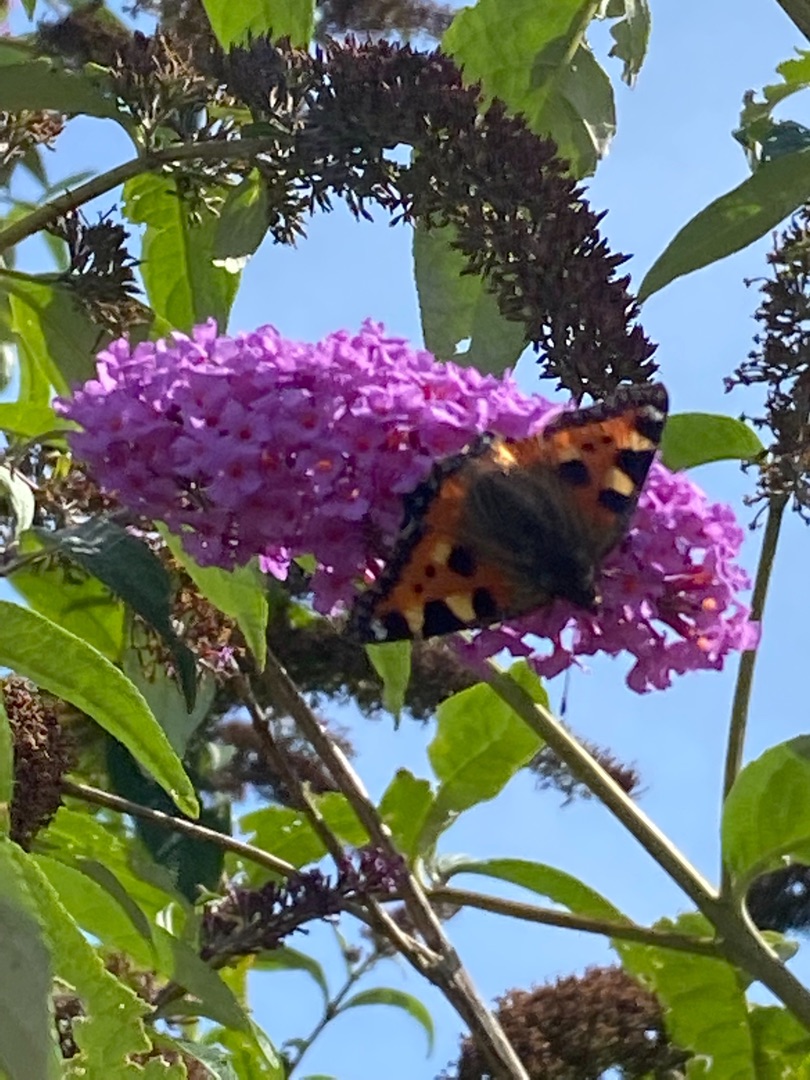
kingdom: Animalia
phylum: Arthropoda
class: Insecta
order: Lepidoptera
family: Nymphalidae
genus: Aglais
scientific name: Aglais urticae
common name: Nældens takvinge
